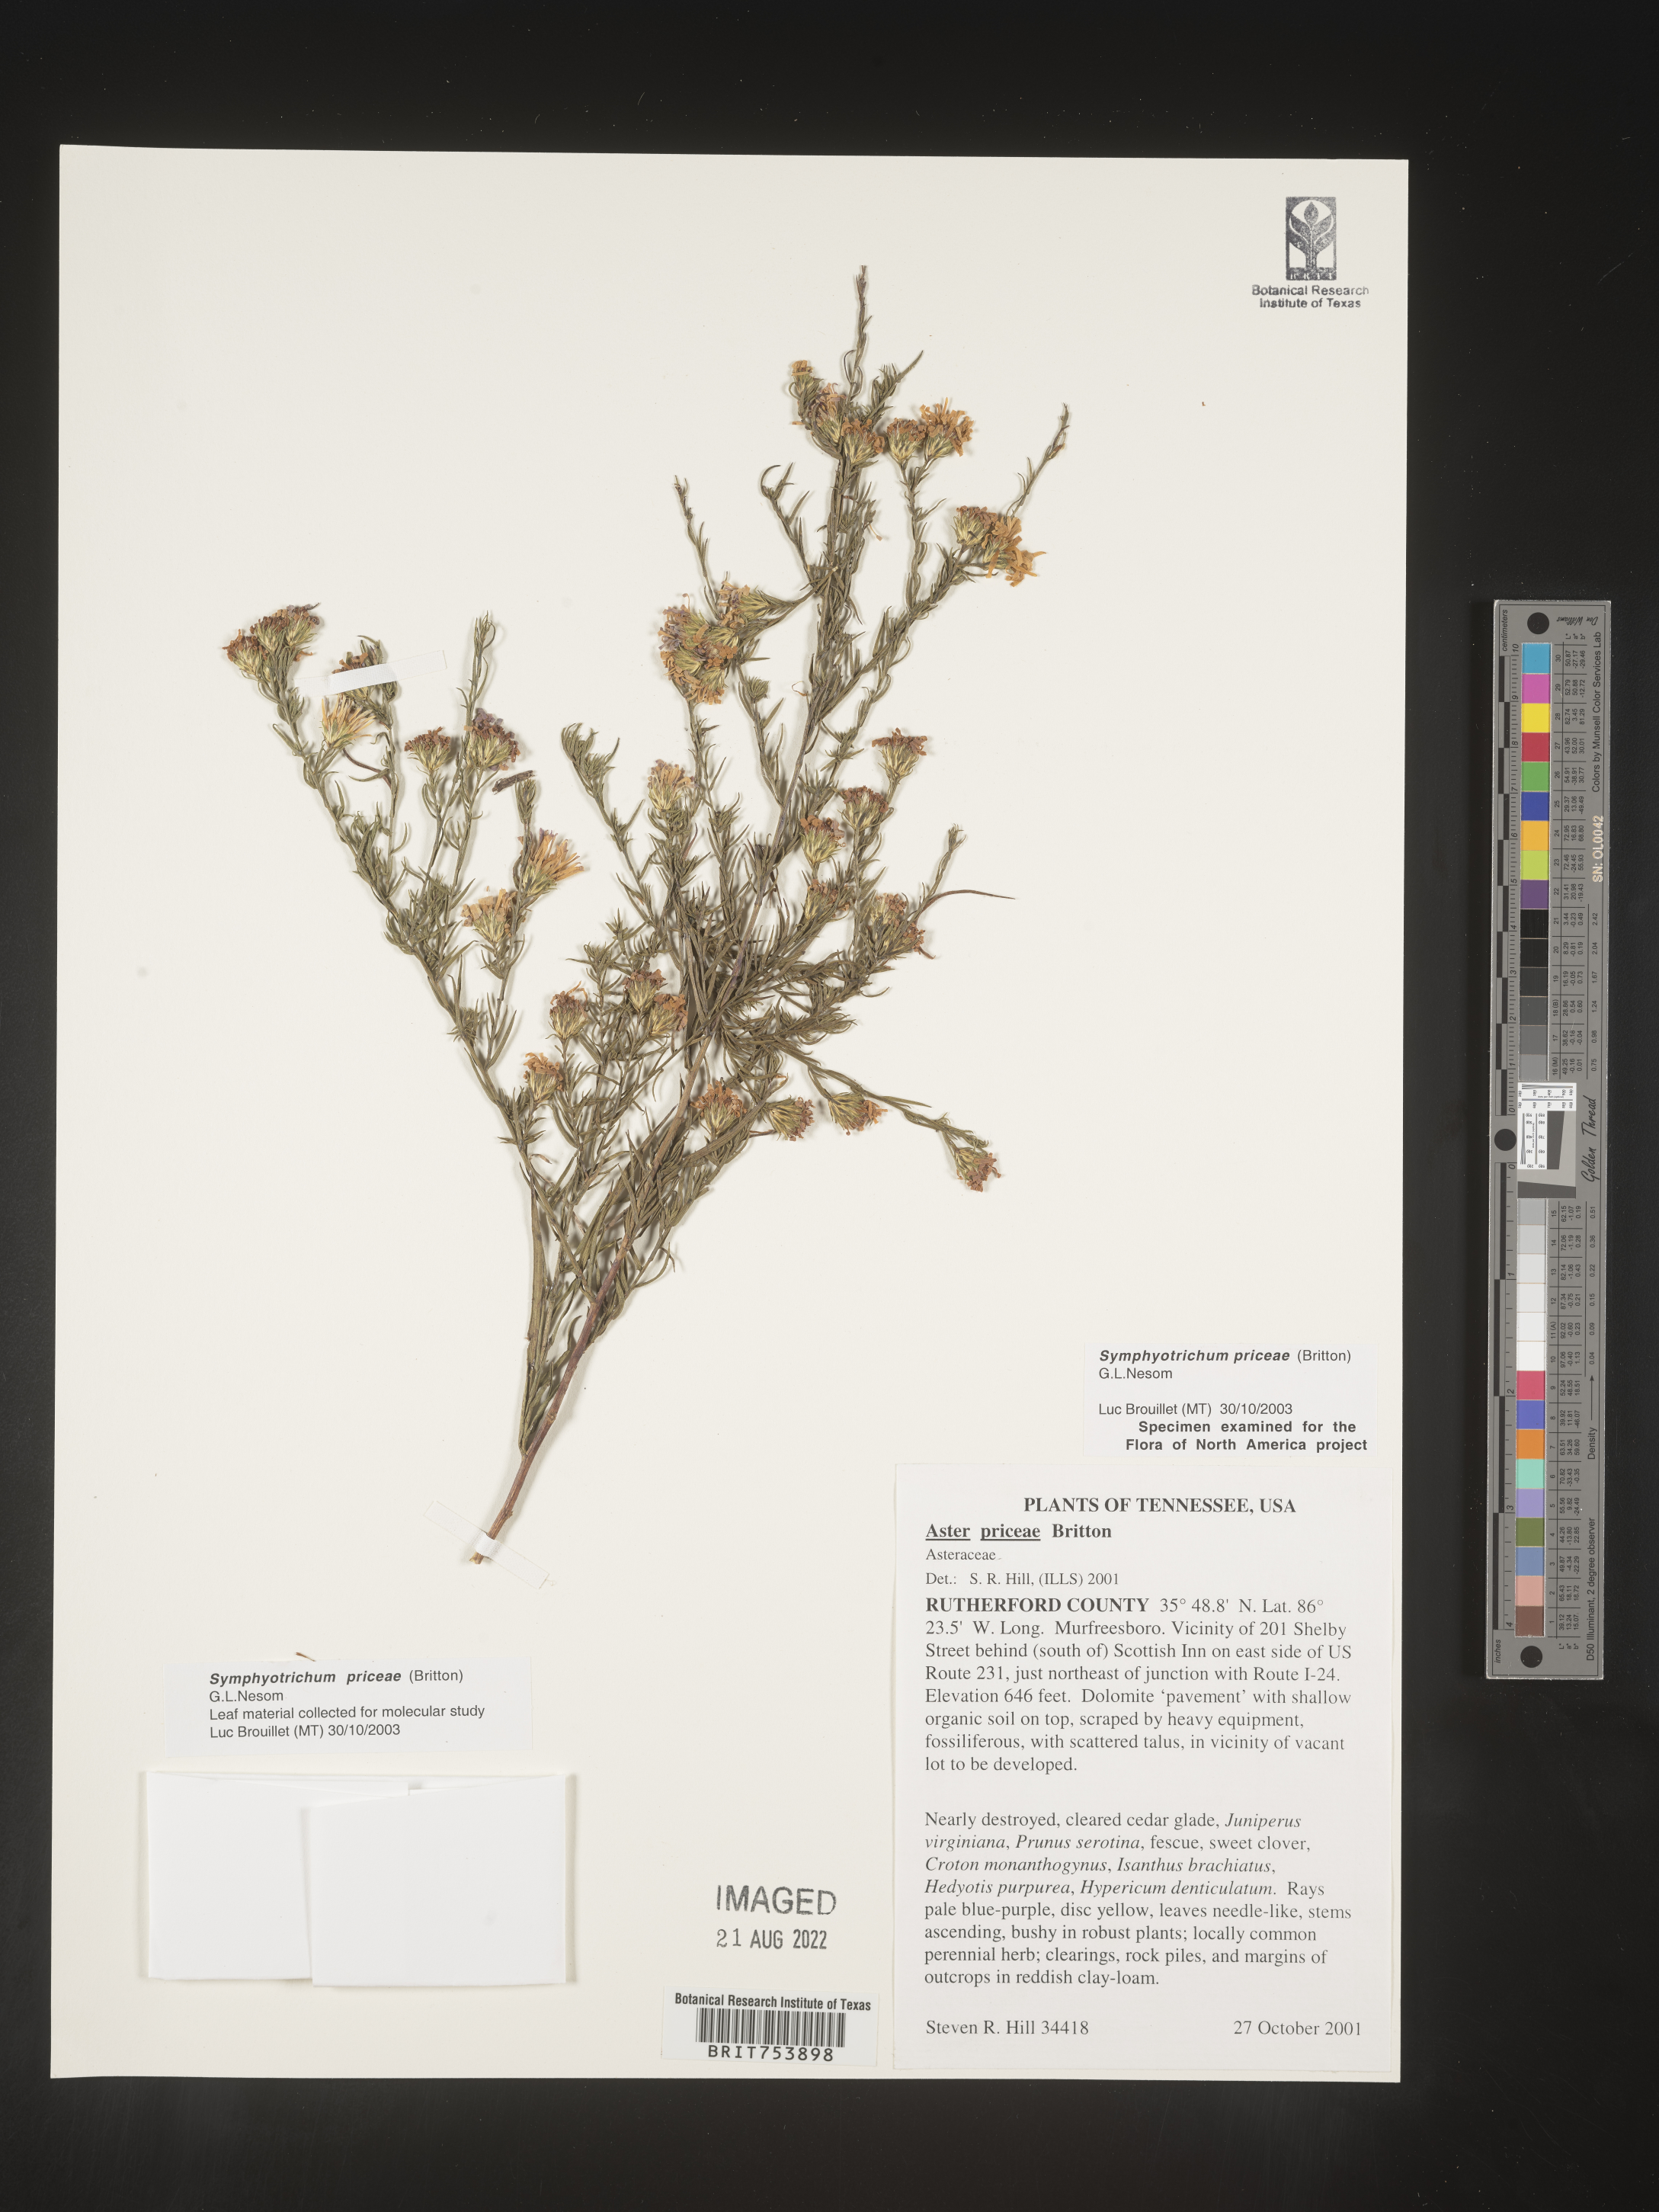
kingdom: Plantae
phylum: Tracheophyta
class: Magnoliopsida
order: Asterales
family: Asteraceae
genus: Symphyotrichum
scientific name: Symphyotrichum priceae
